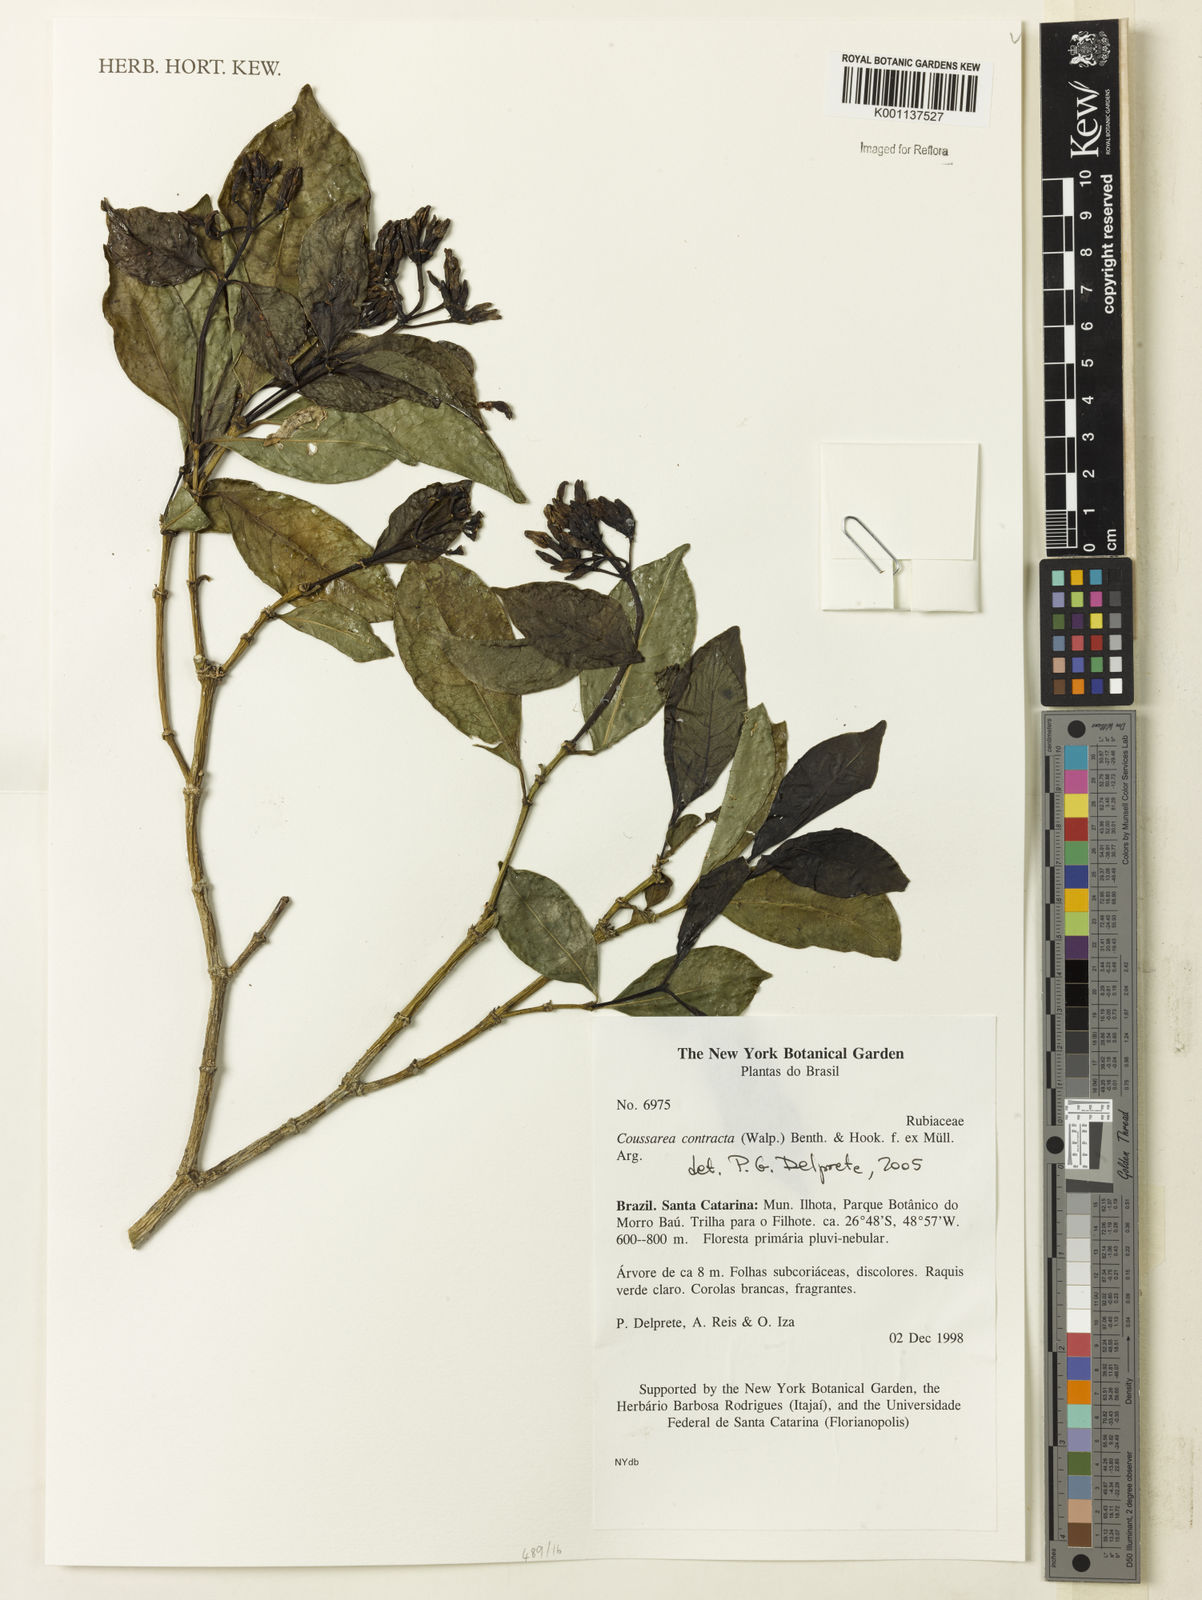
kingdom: Plantae
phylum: Tracheophyta
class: Magnoliopsida
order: Gentianales
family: Rubiaceae
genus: Coussarea
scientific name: Coussarea
